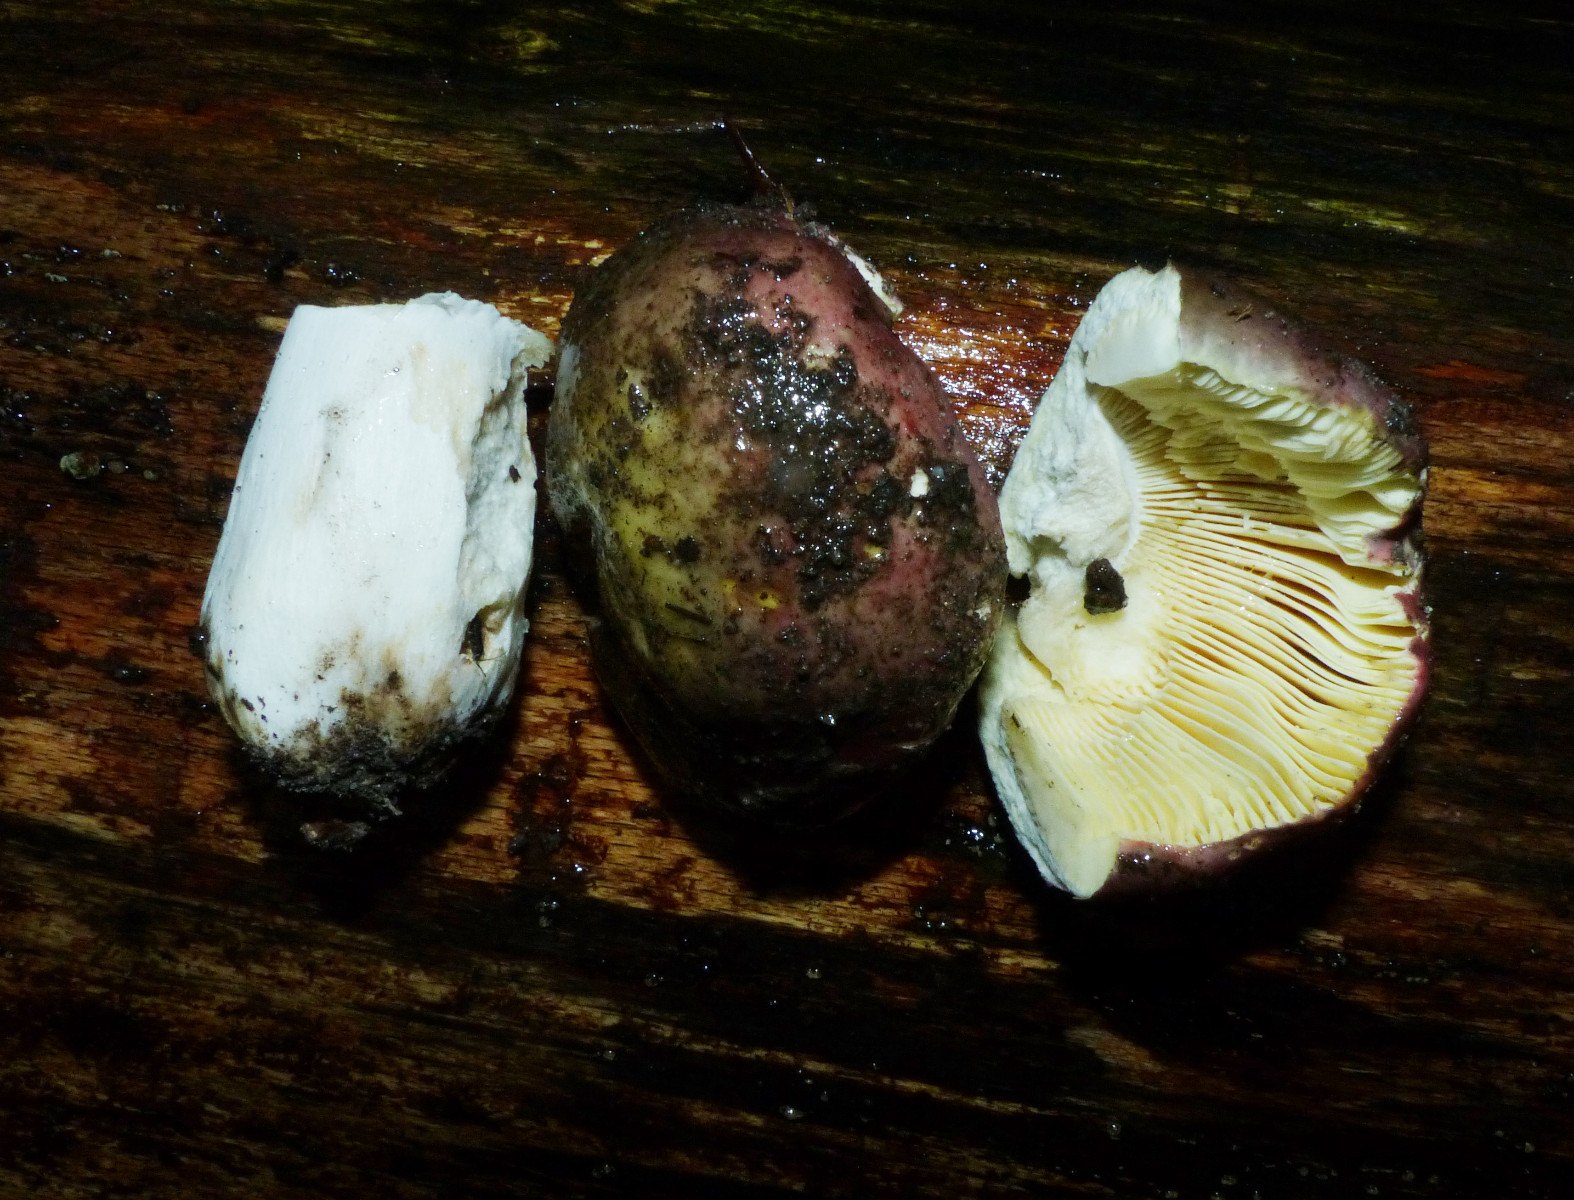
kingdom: Fungi
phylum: Basidiomycota
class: Agaricomycetes
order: Russulales
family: Russulaceae
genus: Russula
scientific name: Russula romellii
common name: romells skørhat
